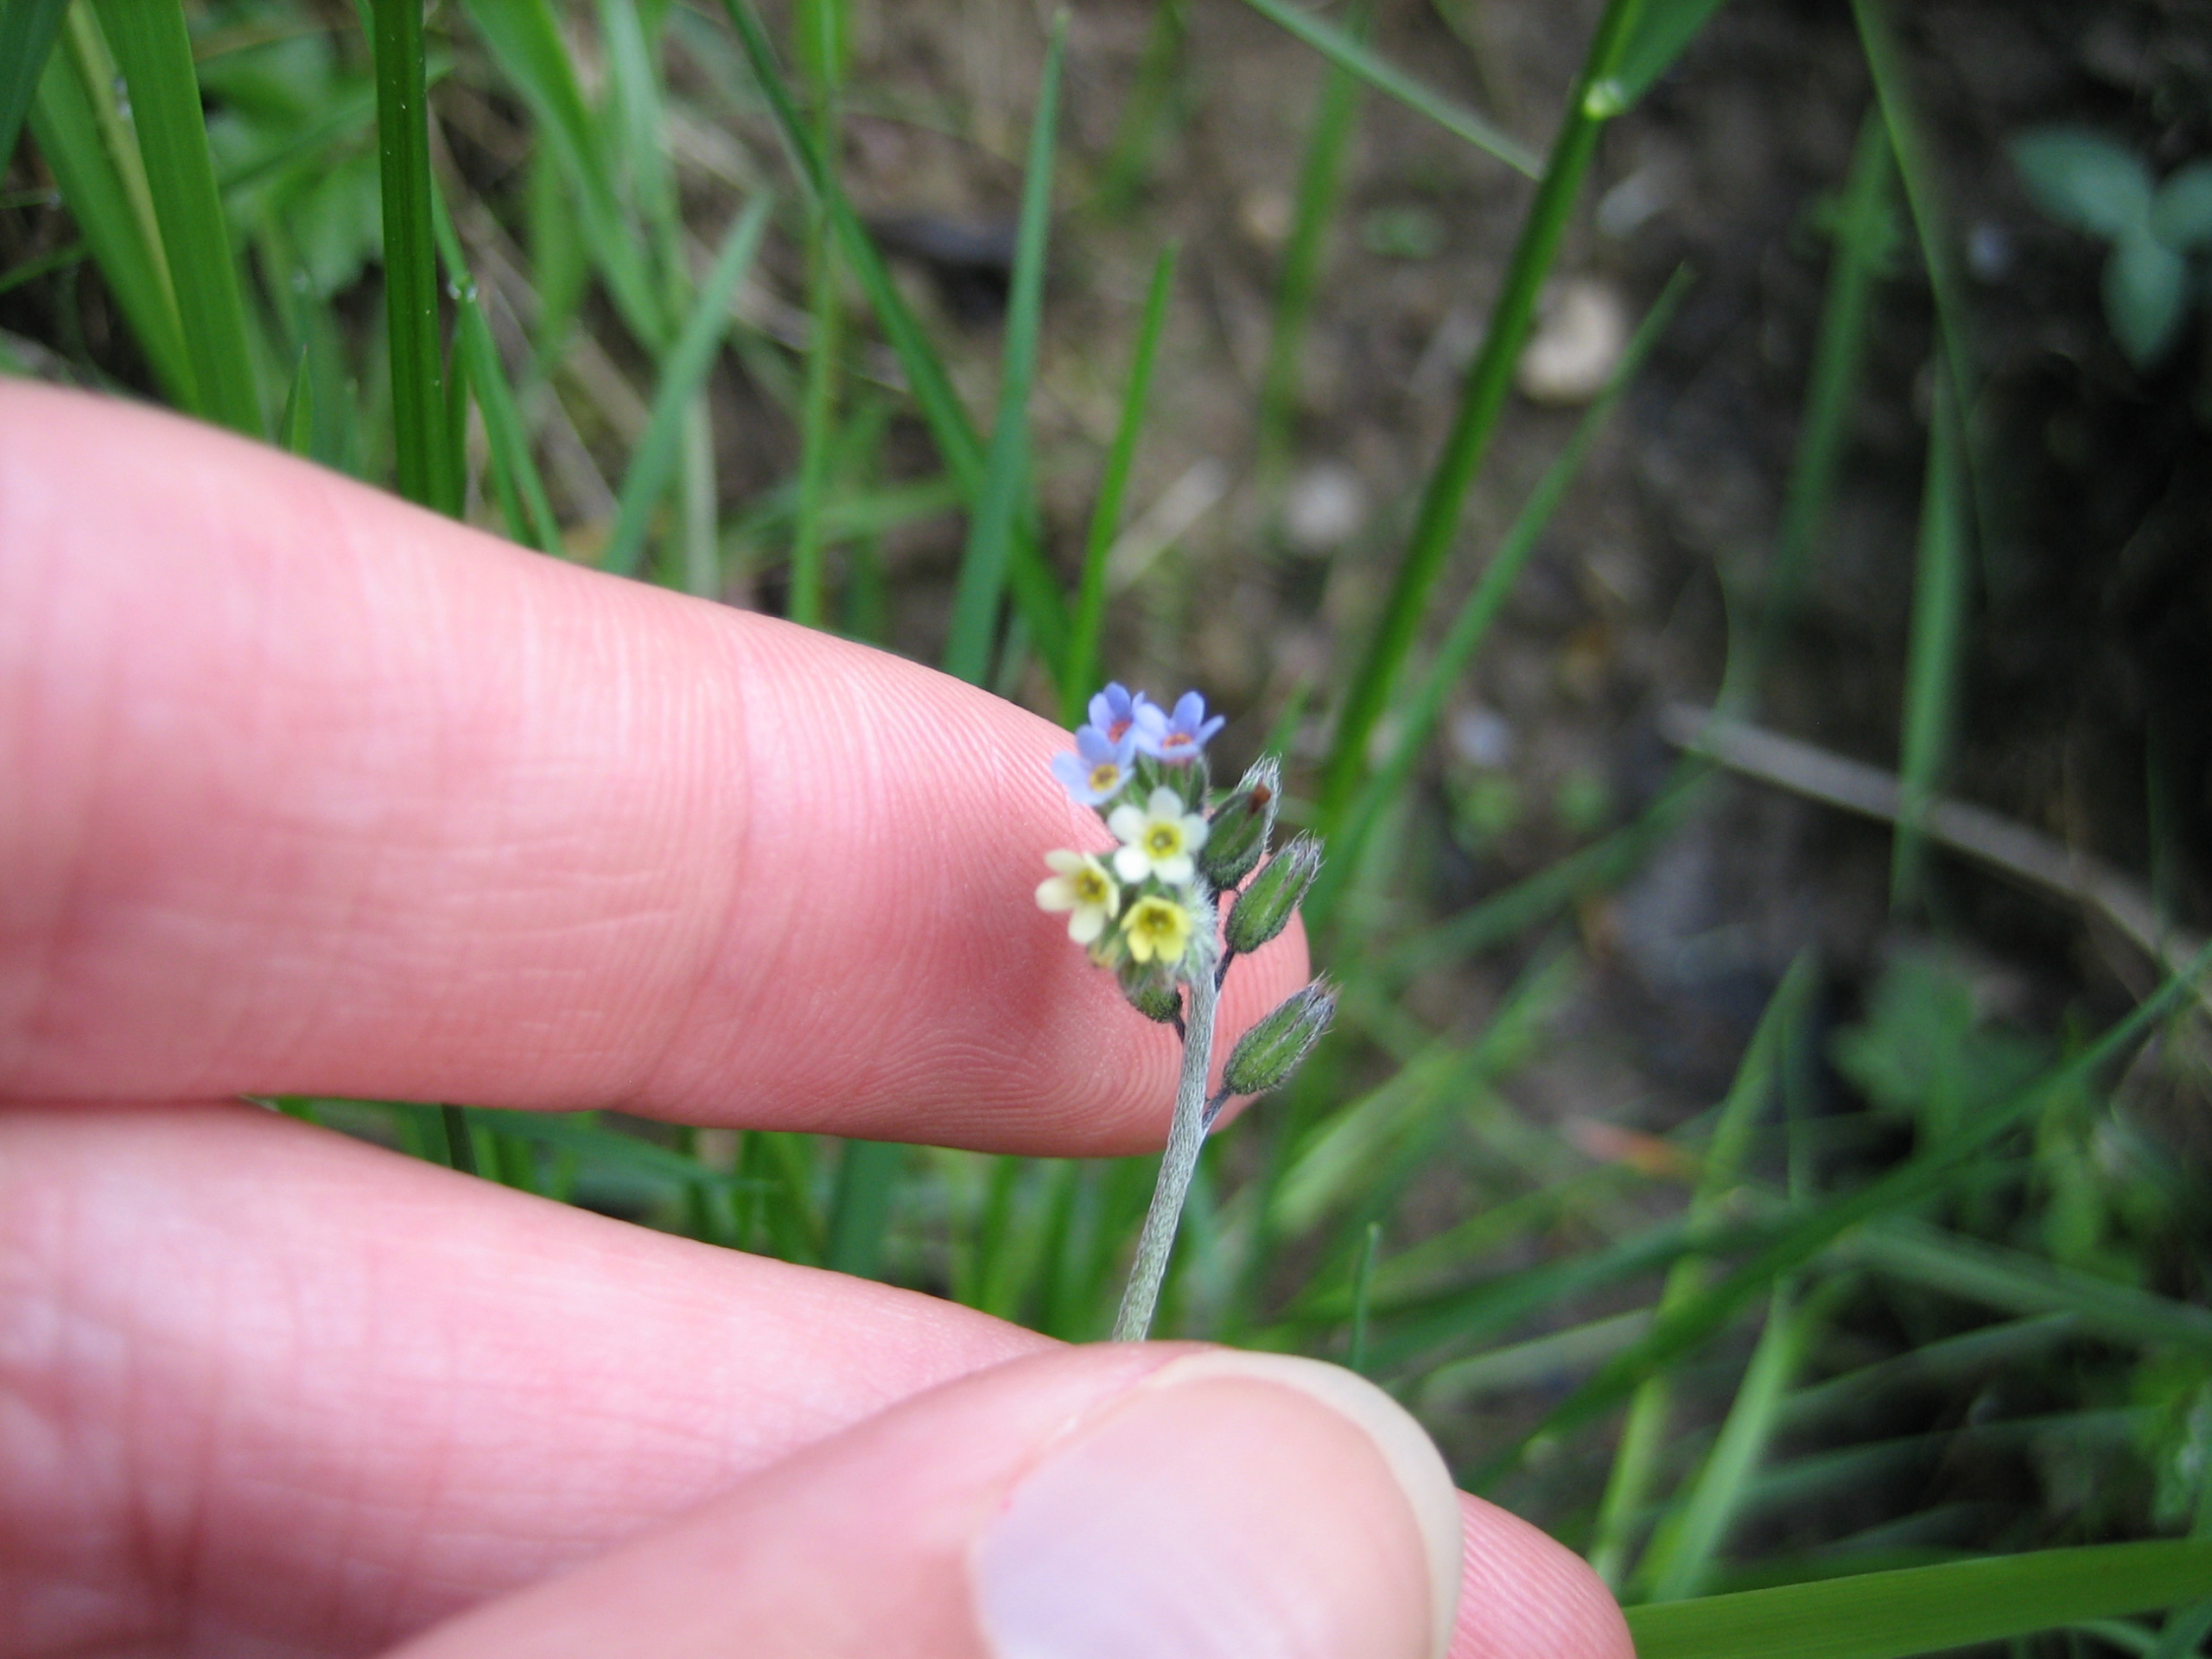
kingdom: Plantae
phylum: Tracheophyta
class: Magnoliopsida
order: Boraginales
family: Boraginaceae
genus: Myosotis
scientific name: Myosotis discolor
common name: Forskelligfarvet forglemmigej
